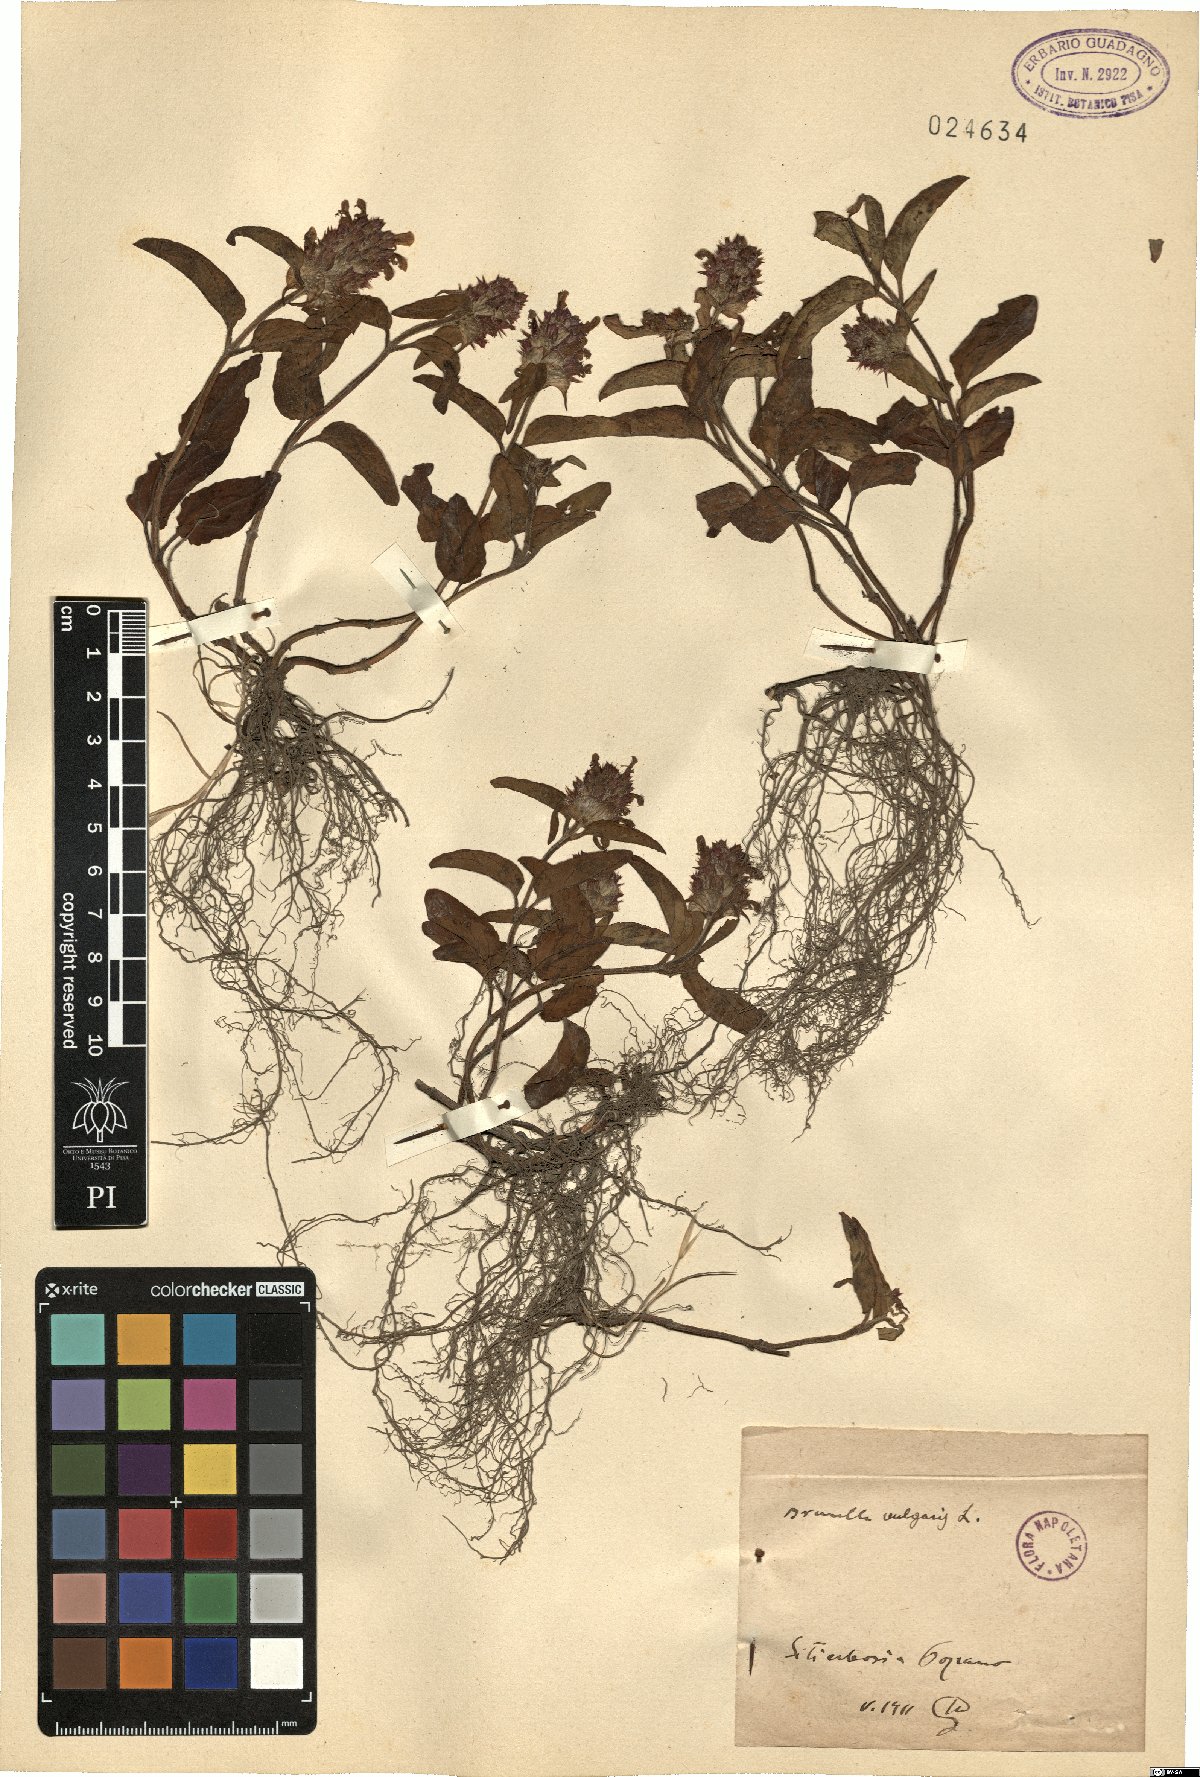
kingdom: Plantae
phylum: Tracheophyta
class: Magnoliopsida
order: Lamiales
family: Lamiaceae
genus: Prunella
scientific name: Prunella vulgaris
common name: Heal-all
